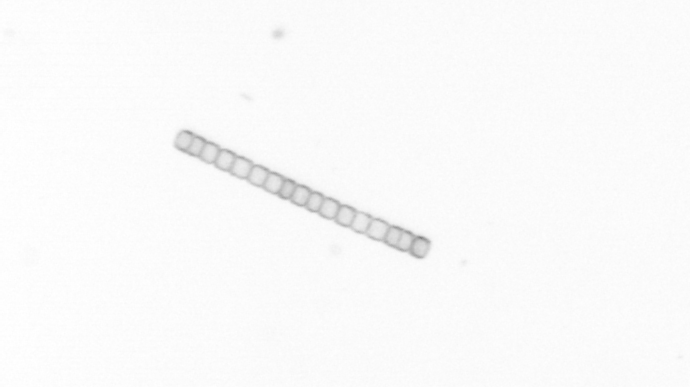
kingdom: Chromista
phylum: Ochrophyta
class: Bacillariophyceae
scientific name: Bacillariophyceae
